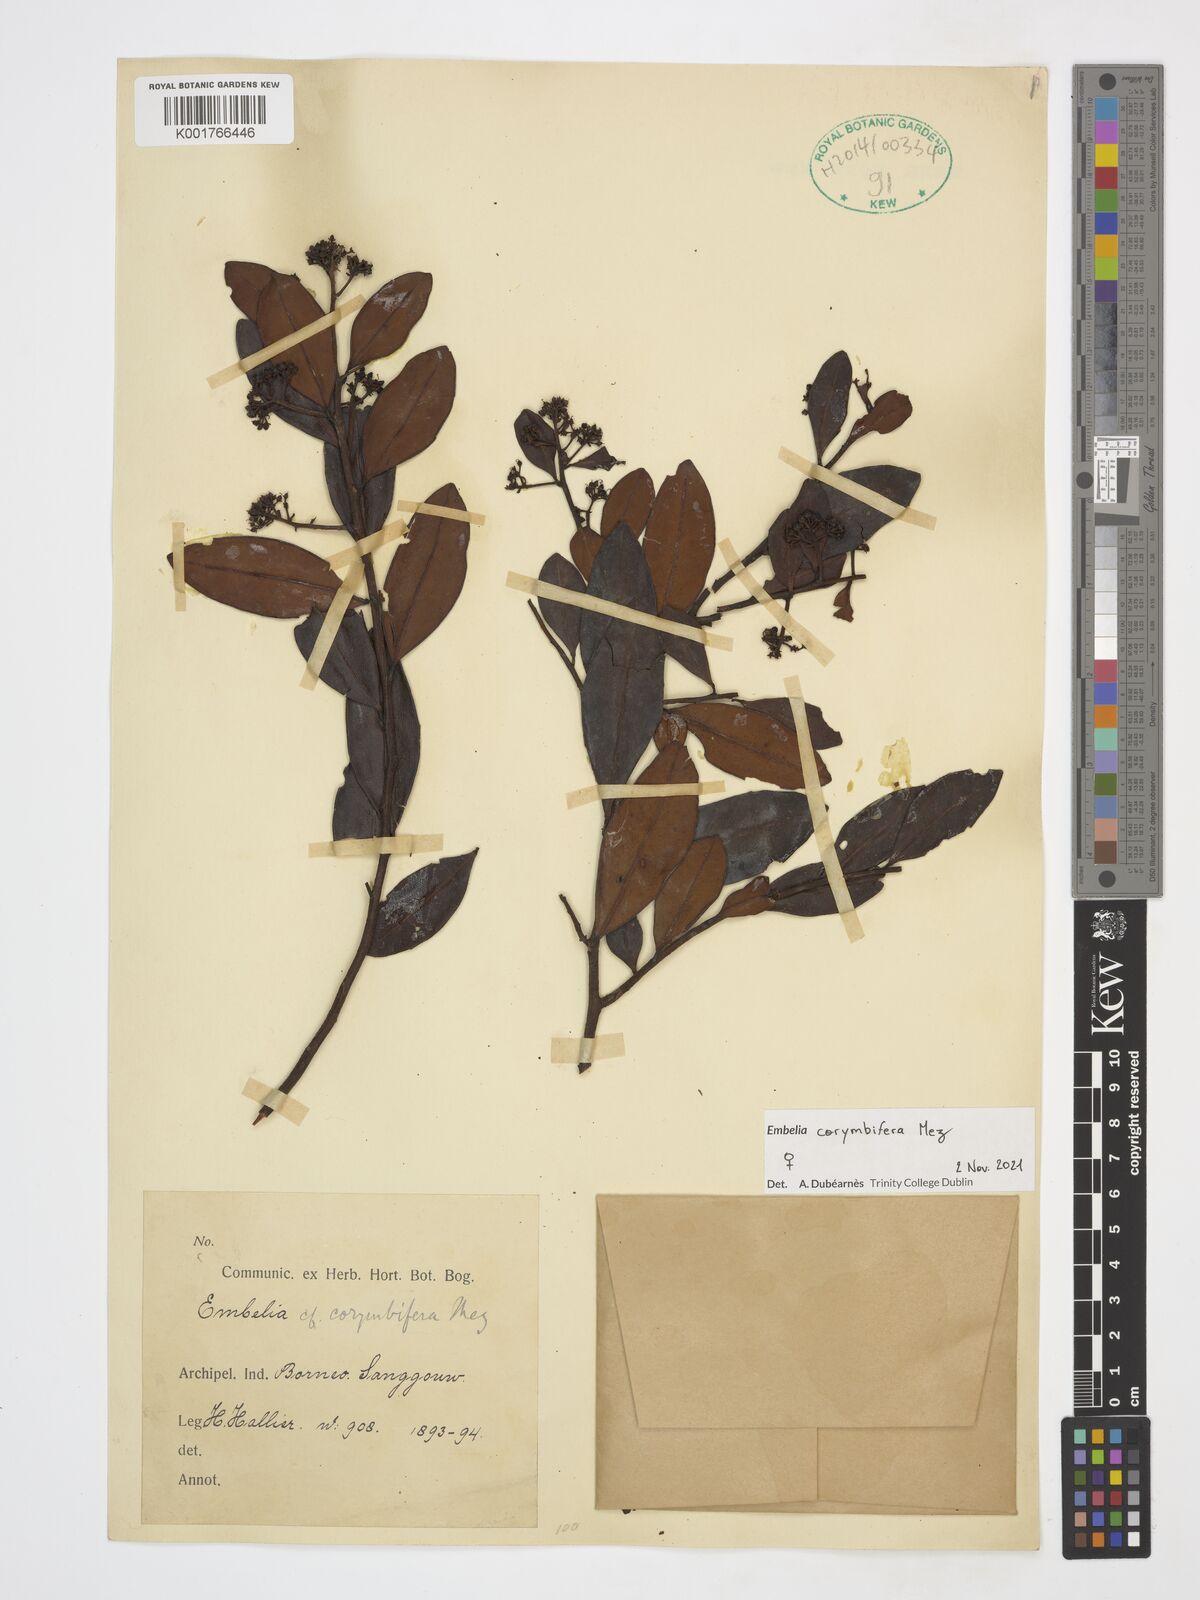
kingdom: Plantae
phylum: Tracheophyta
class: Magnoliopsida
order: Ericales
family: Primulaceae
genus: Embelia
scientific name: Embelia corymbifera
